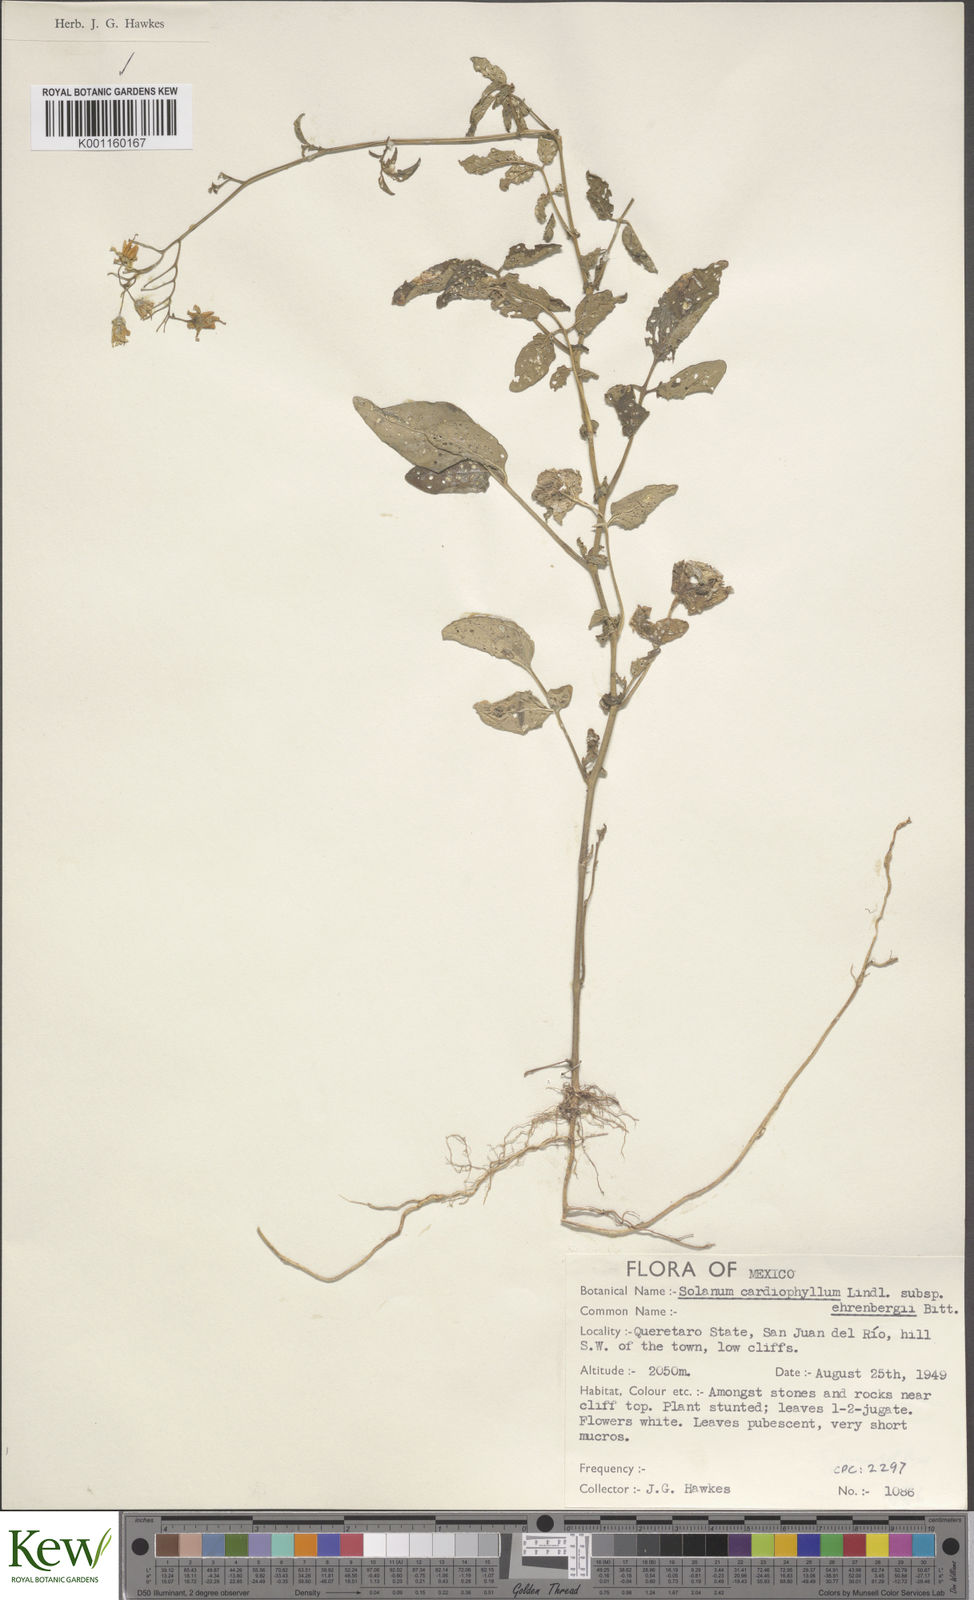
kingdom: Plantae
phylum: Tracheophyta
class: Magnoliopsida
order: Solanales
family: Solanaceae
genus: Solanum
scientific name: Solanum cardiophyllum
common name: Heartleaf horsenettle
